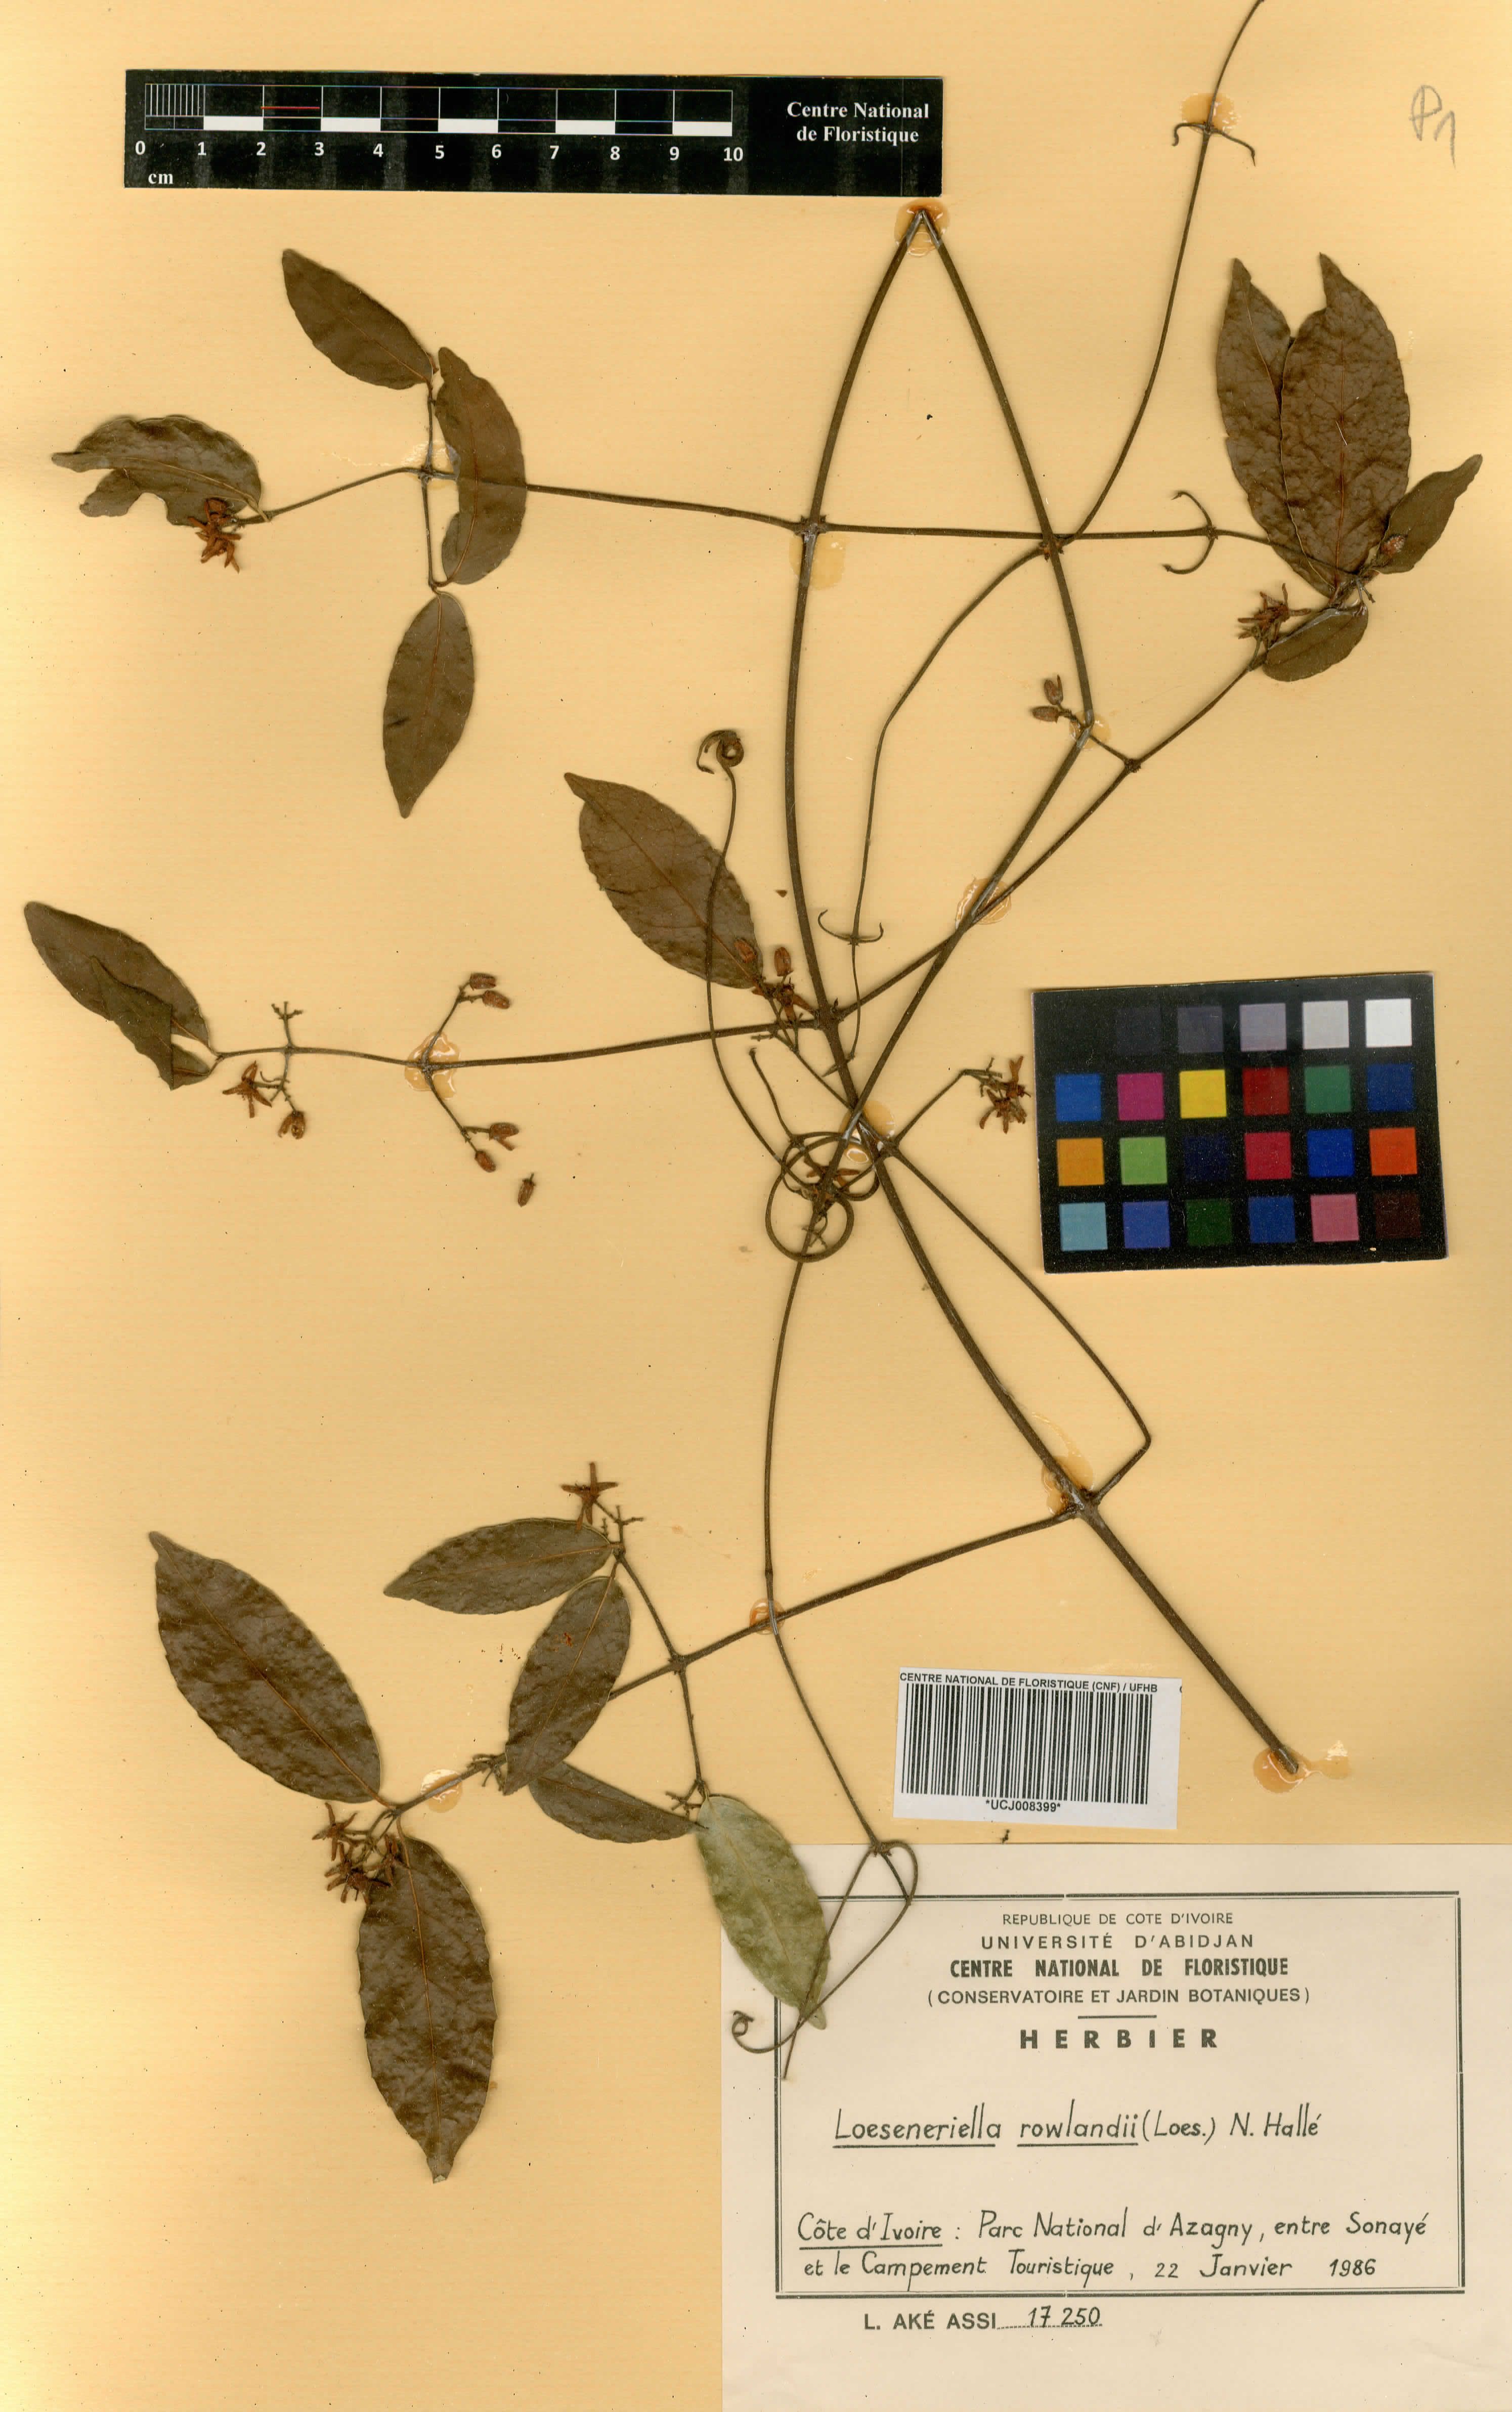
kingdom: Plantae
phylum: Tracheophyta
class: Magnoliopsida
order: Celastrales
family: Celastraceae
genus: Loeseneriella
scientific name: Loeseneriella rowlandii
